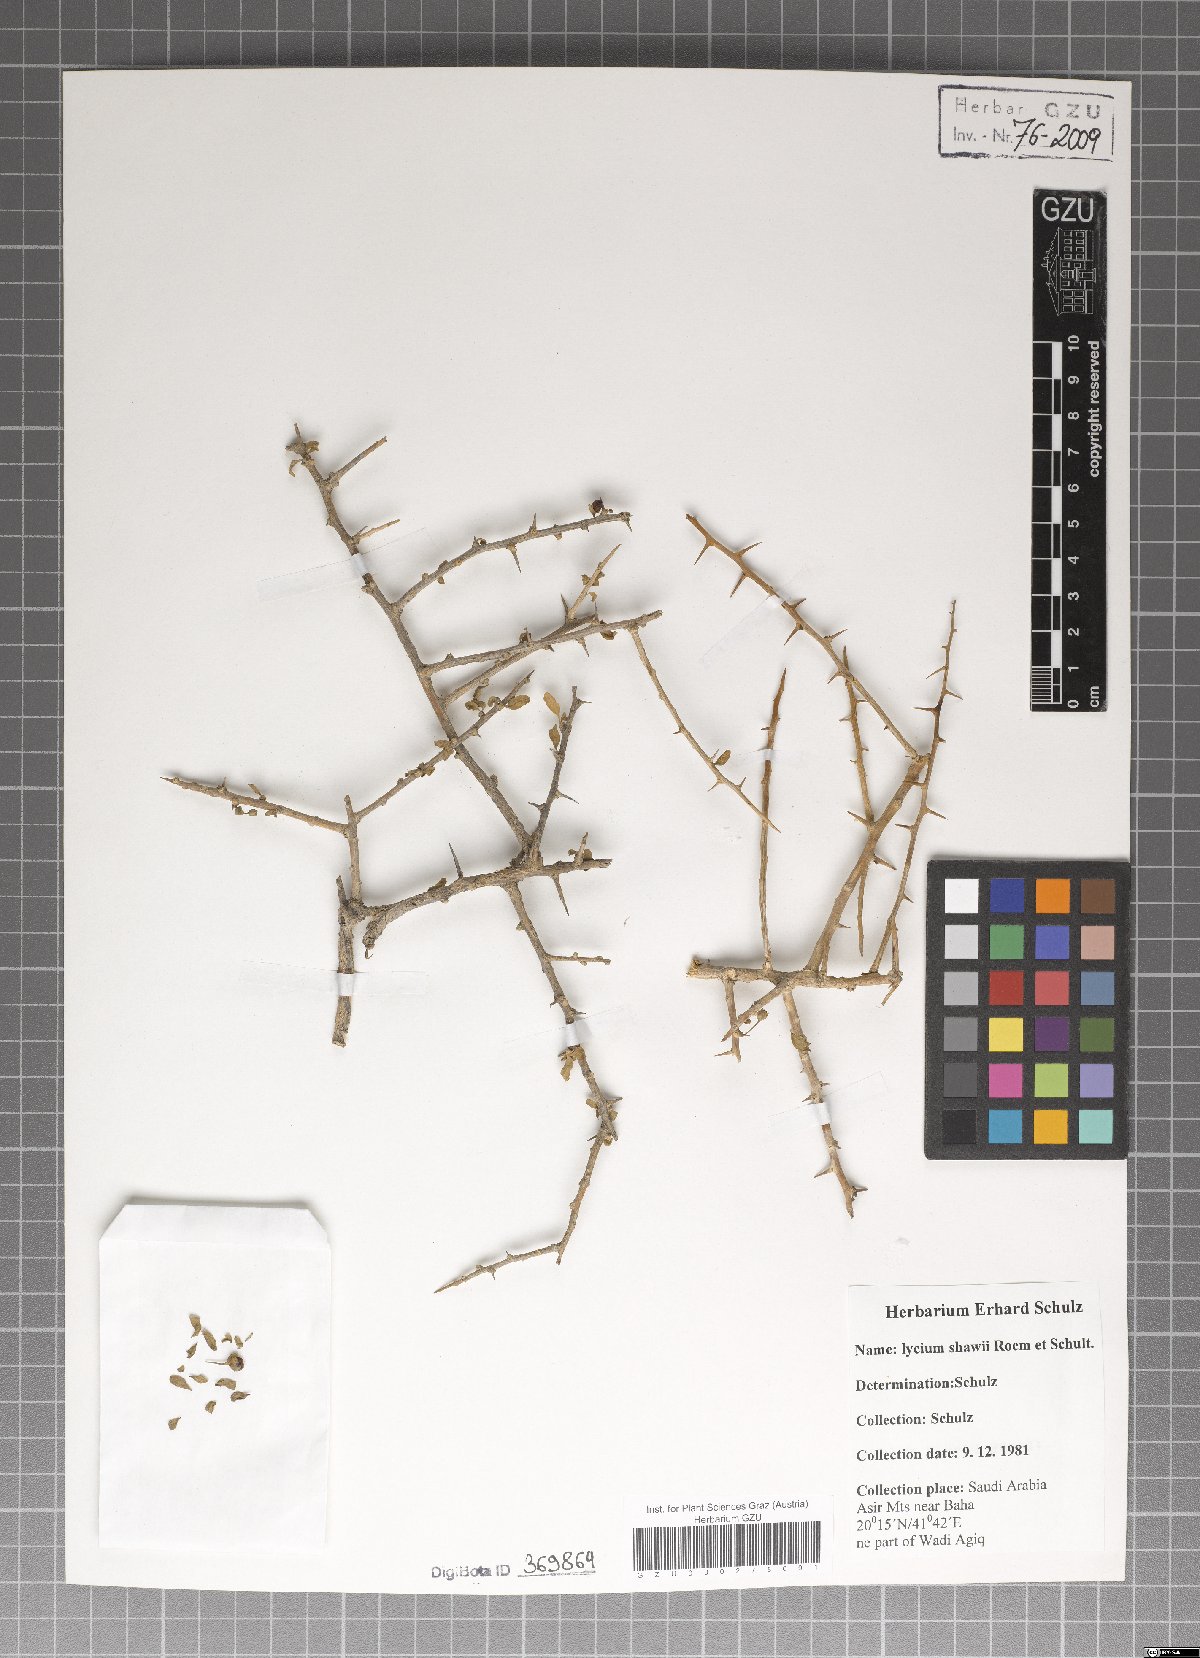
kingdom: Plantae
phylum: Tracheophyta
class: Magnoliopsida
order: Solanales
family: Solanaceae
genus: Lycium
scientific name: Lycium shawii
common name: Boxthorn
